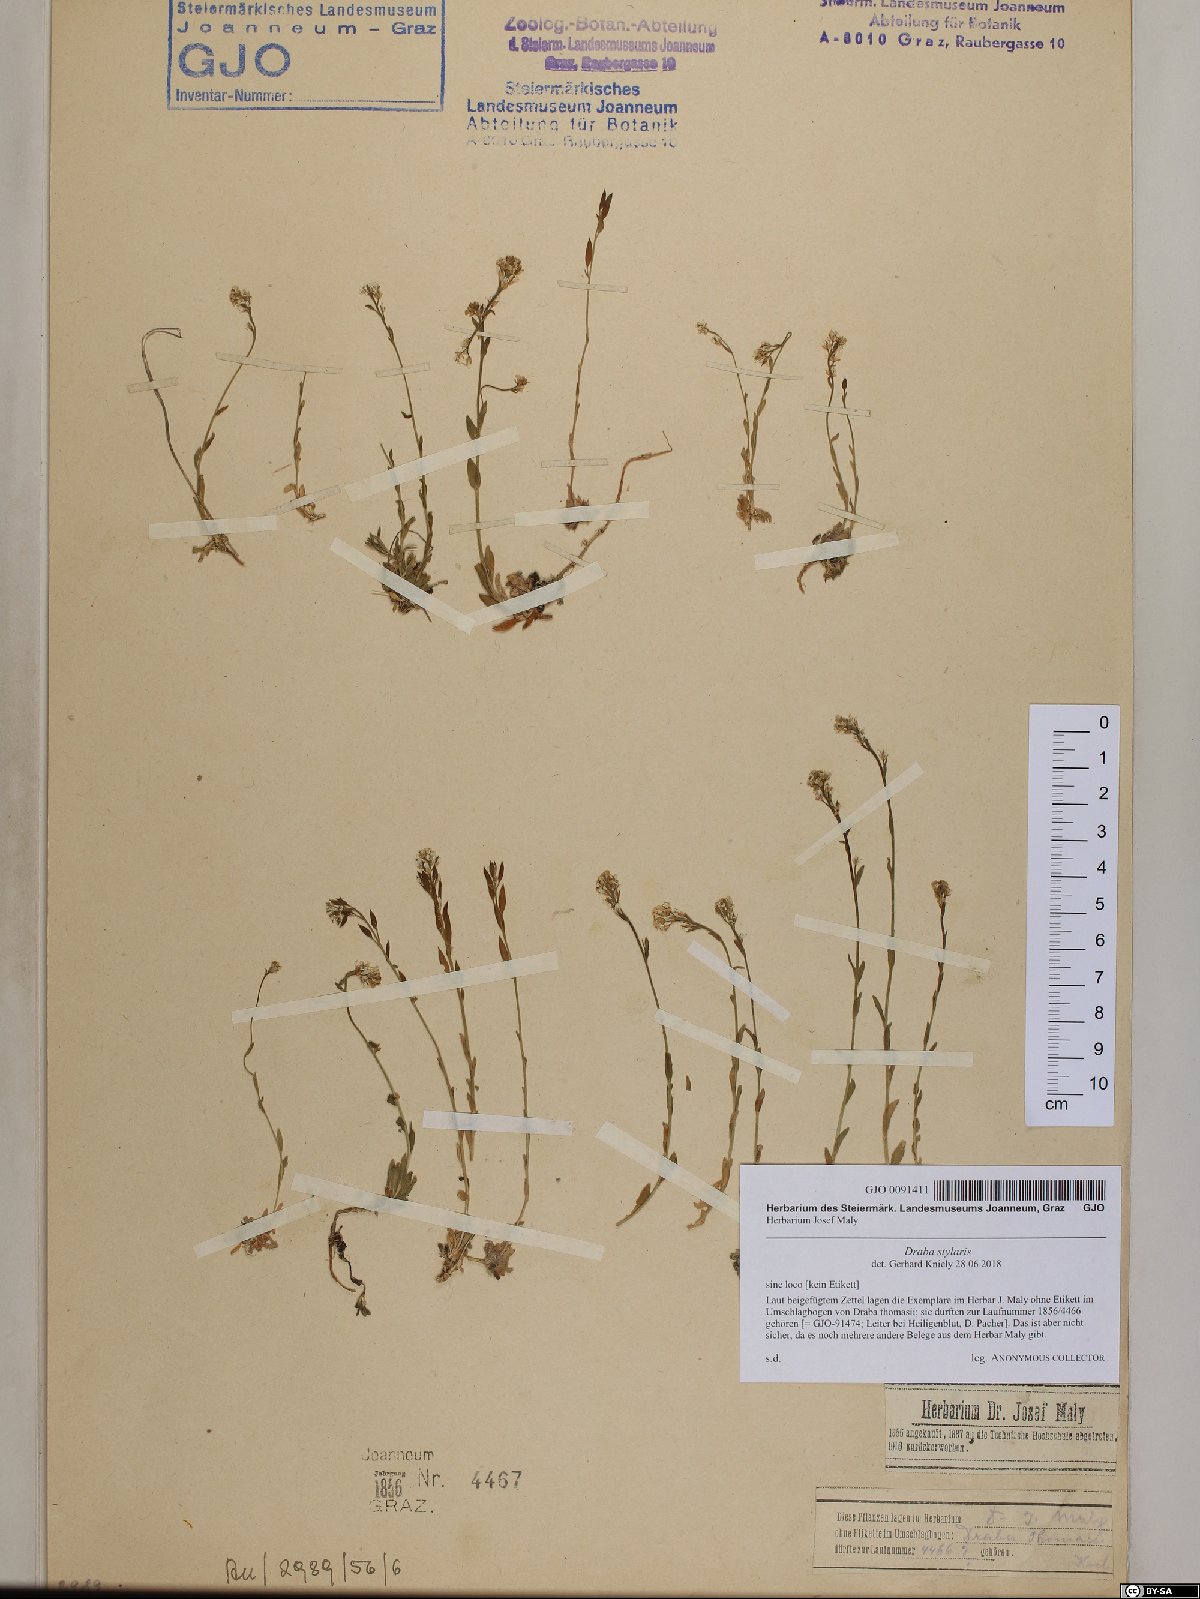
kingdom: Plantae
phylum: Tracheophyta
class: Magnoliopsida
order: Brassicales
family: Brassicaceae
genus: Draba
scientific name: Draba thomasii
